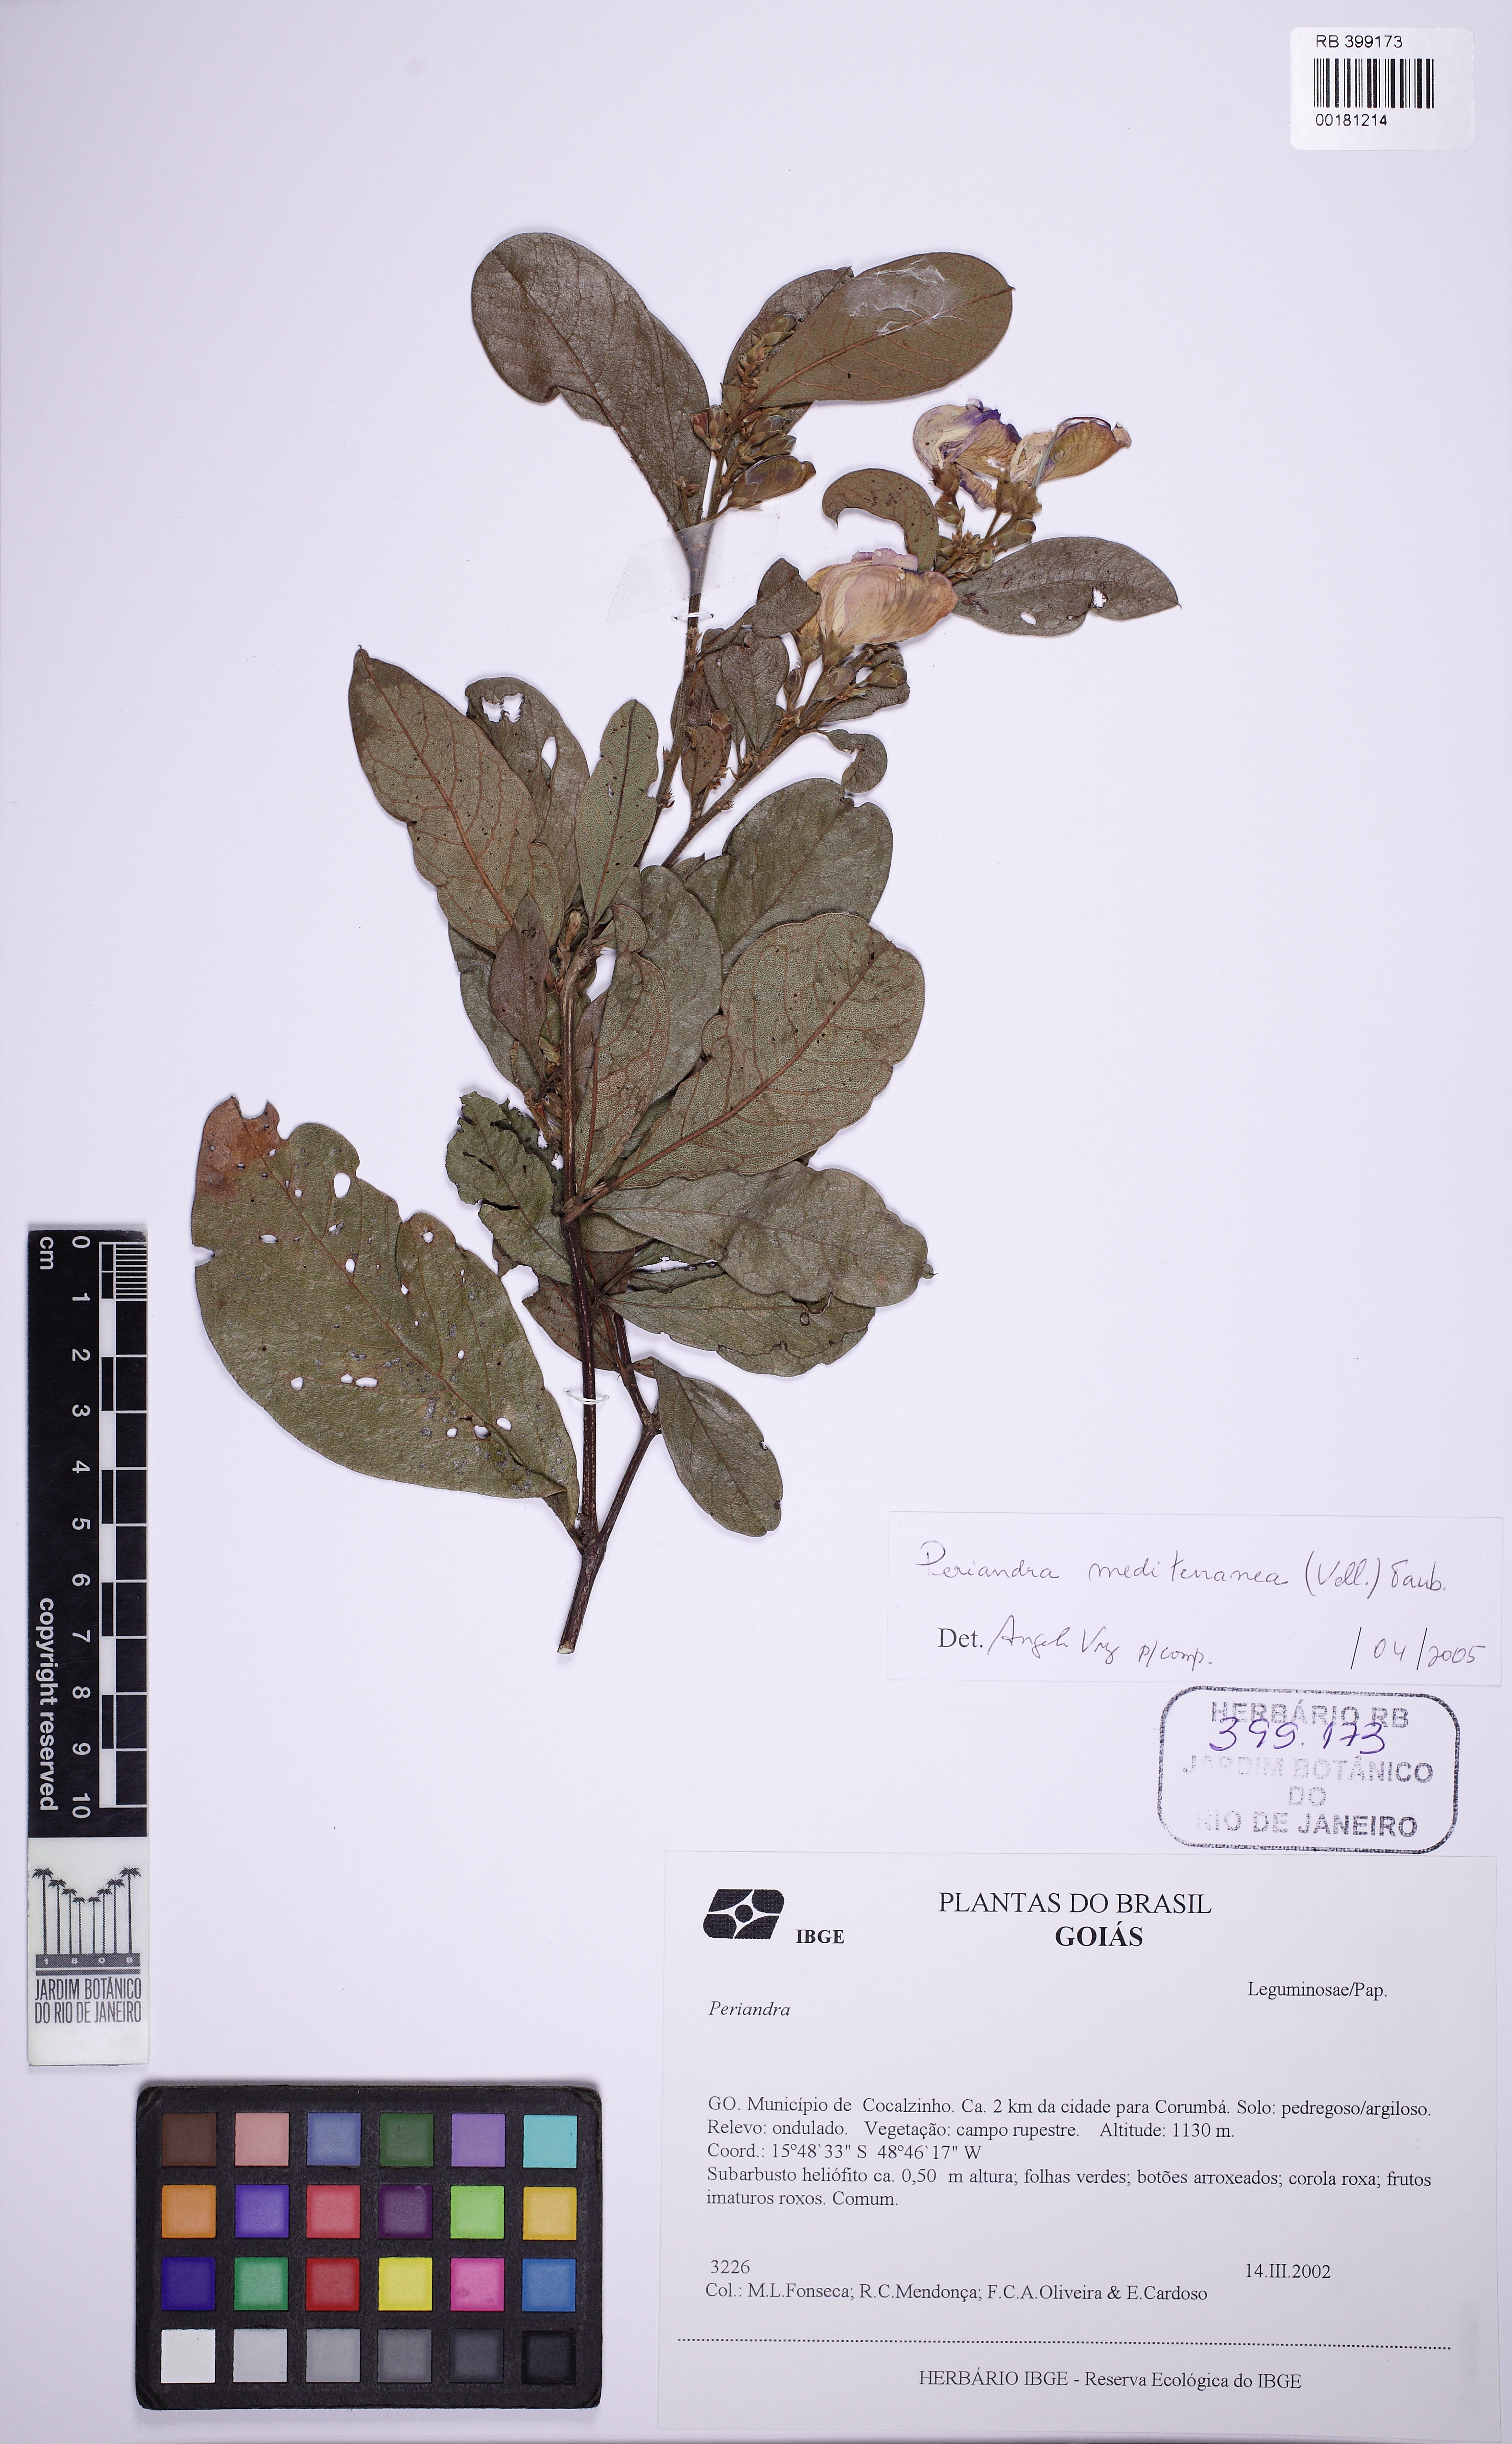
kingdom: Plantae
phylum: Tracheophyta
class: Magnoliopsida
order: Fabales
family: Fabaceae
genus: Periandra
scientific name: Periandra mediterranea
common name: Brazilian licorice
